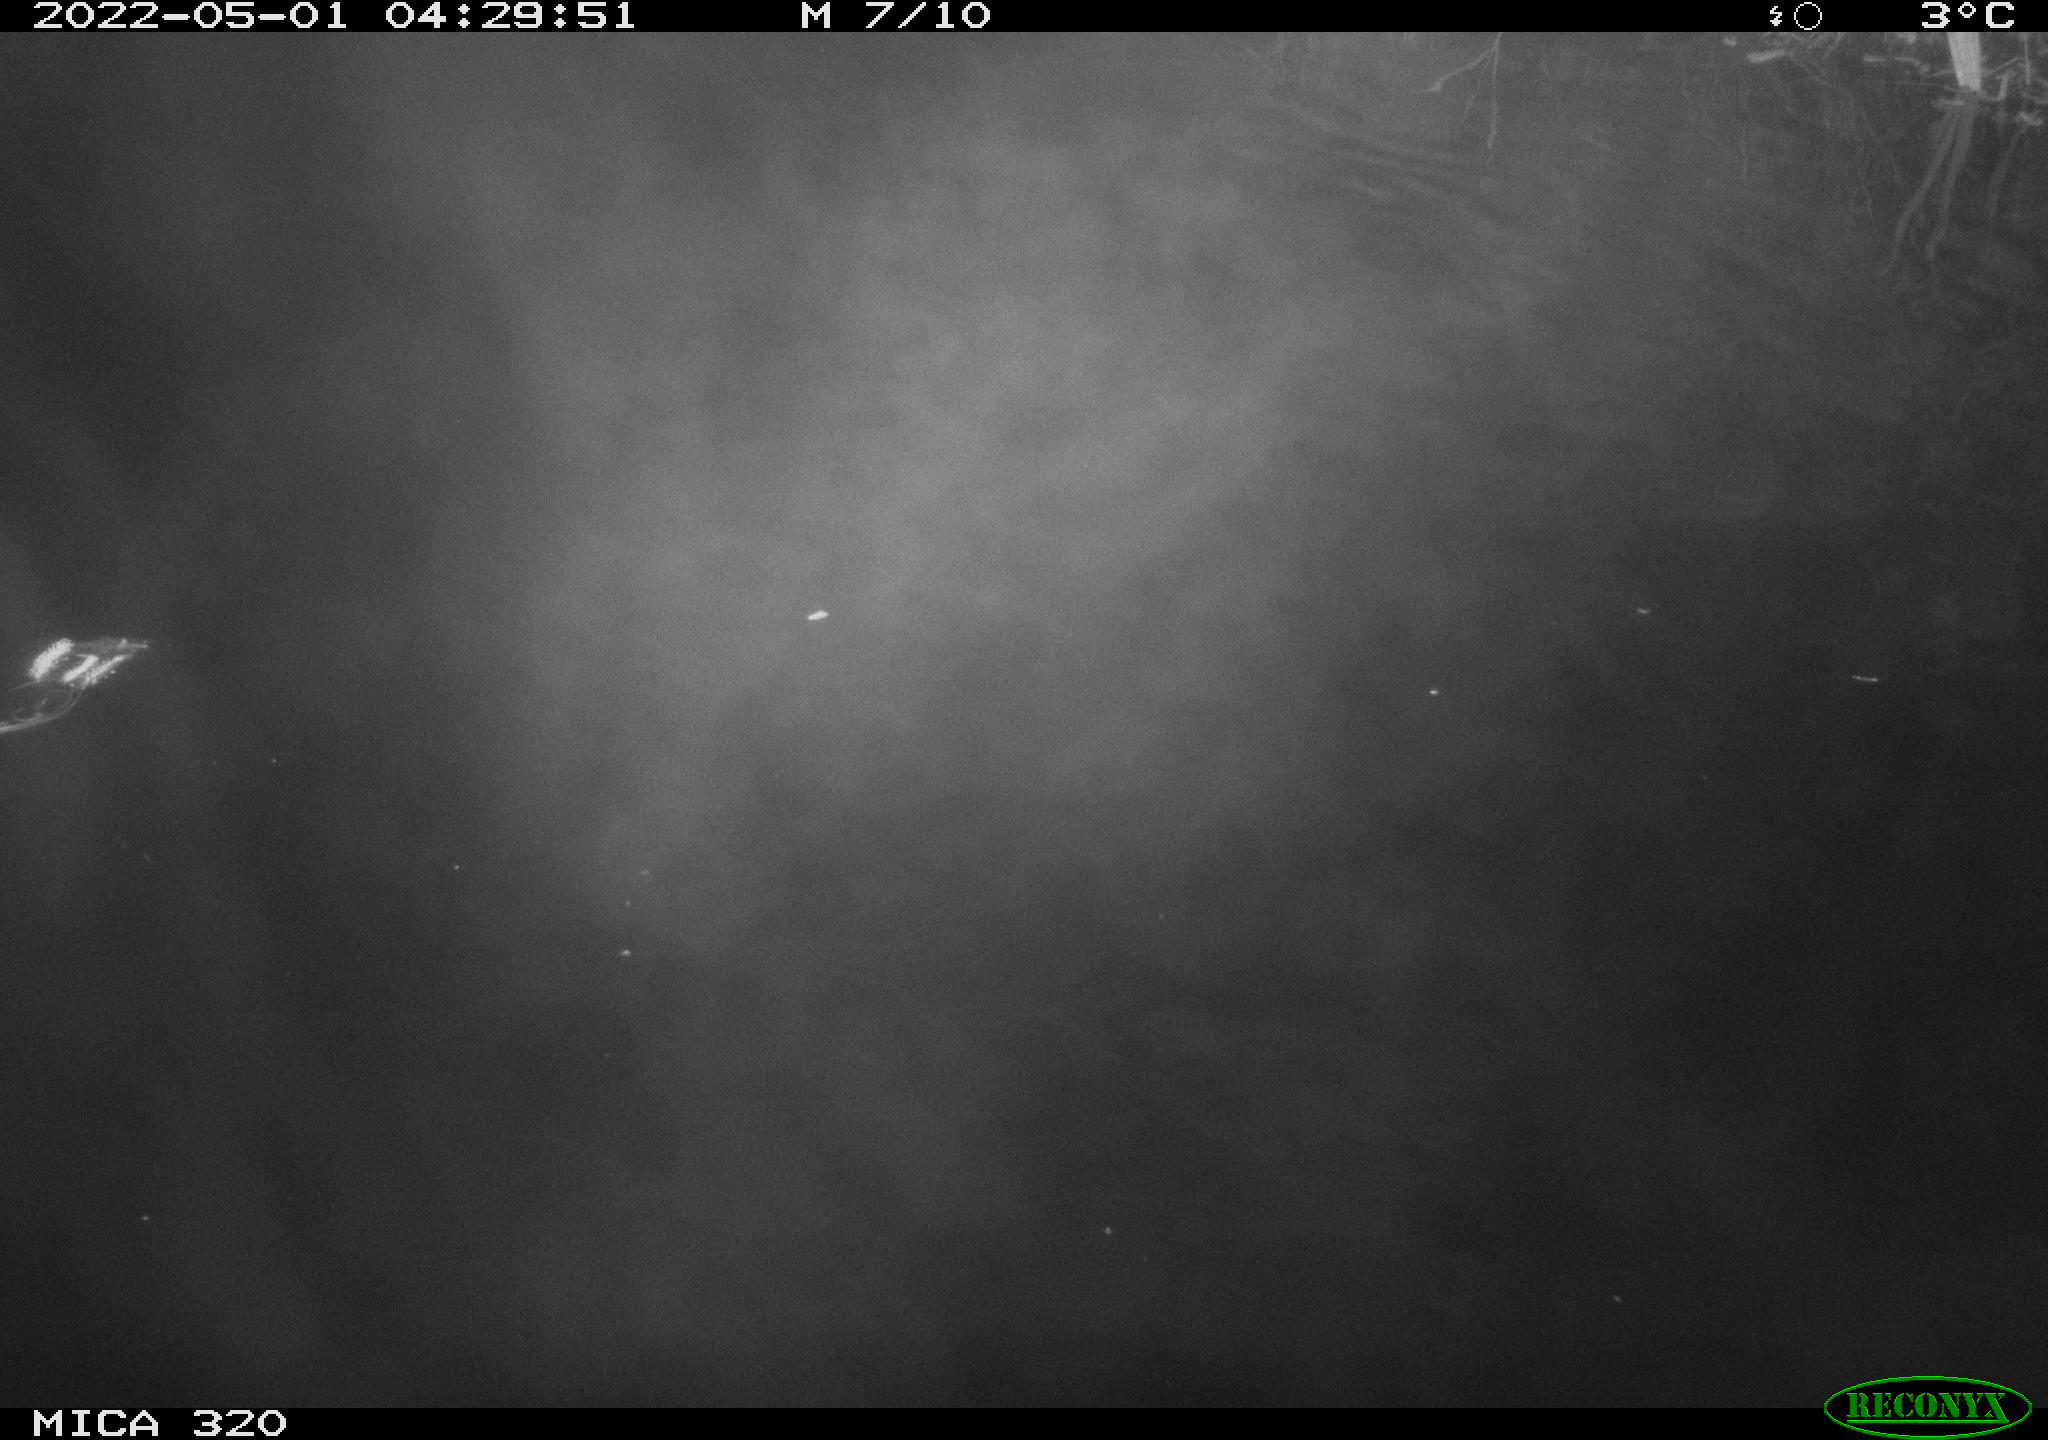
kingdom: Animalia
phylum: Chordata
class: Aves
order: Anseriformes
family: Anatidae
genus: Anas
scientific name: Anas platyrhynchos
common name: Mallard
